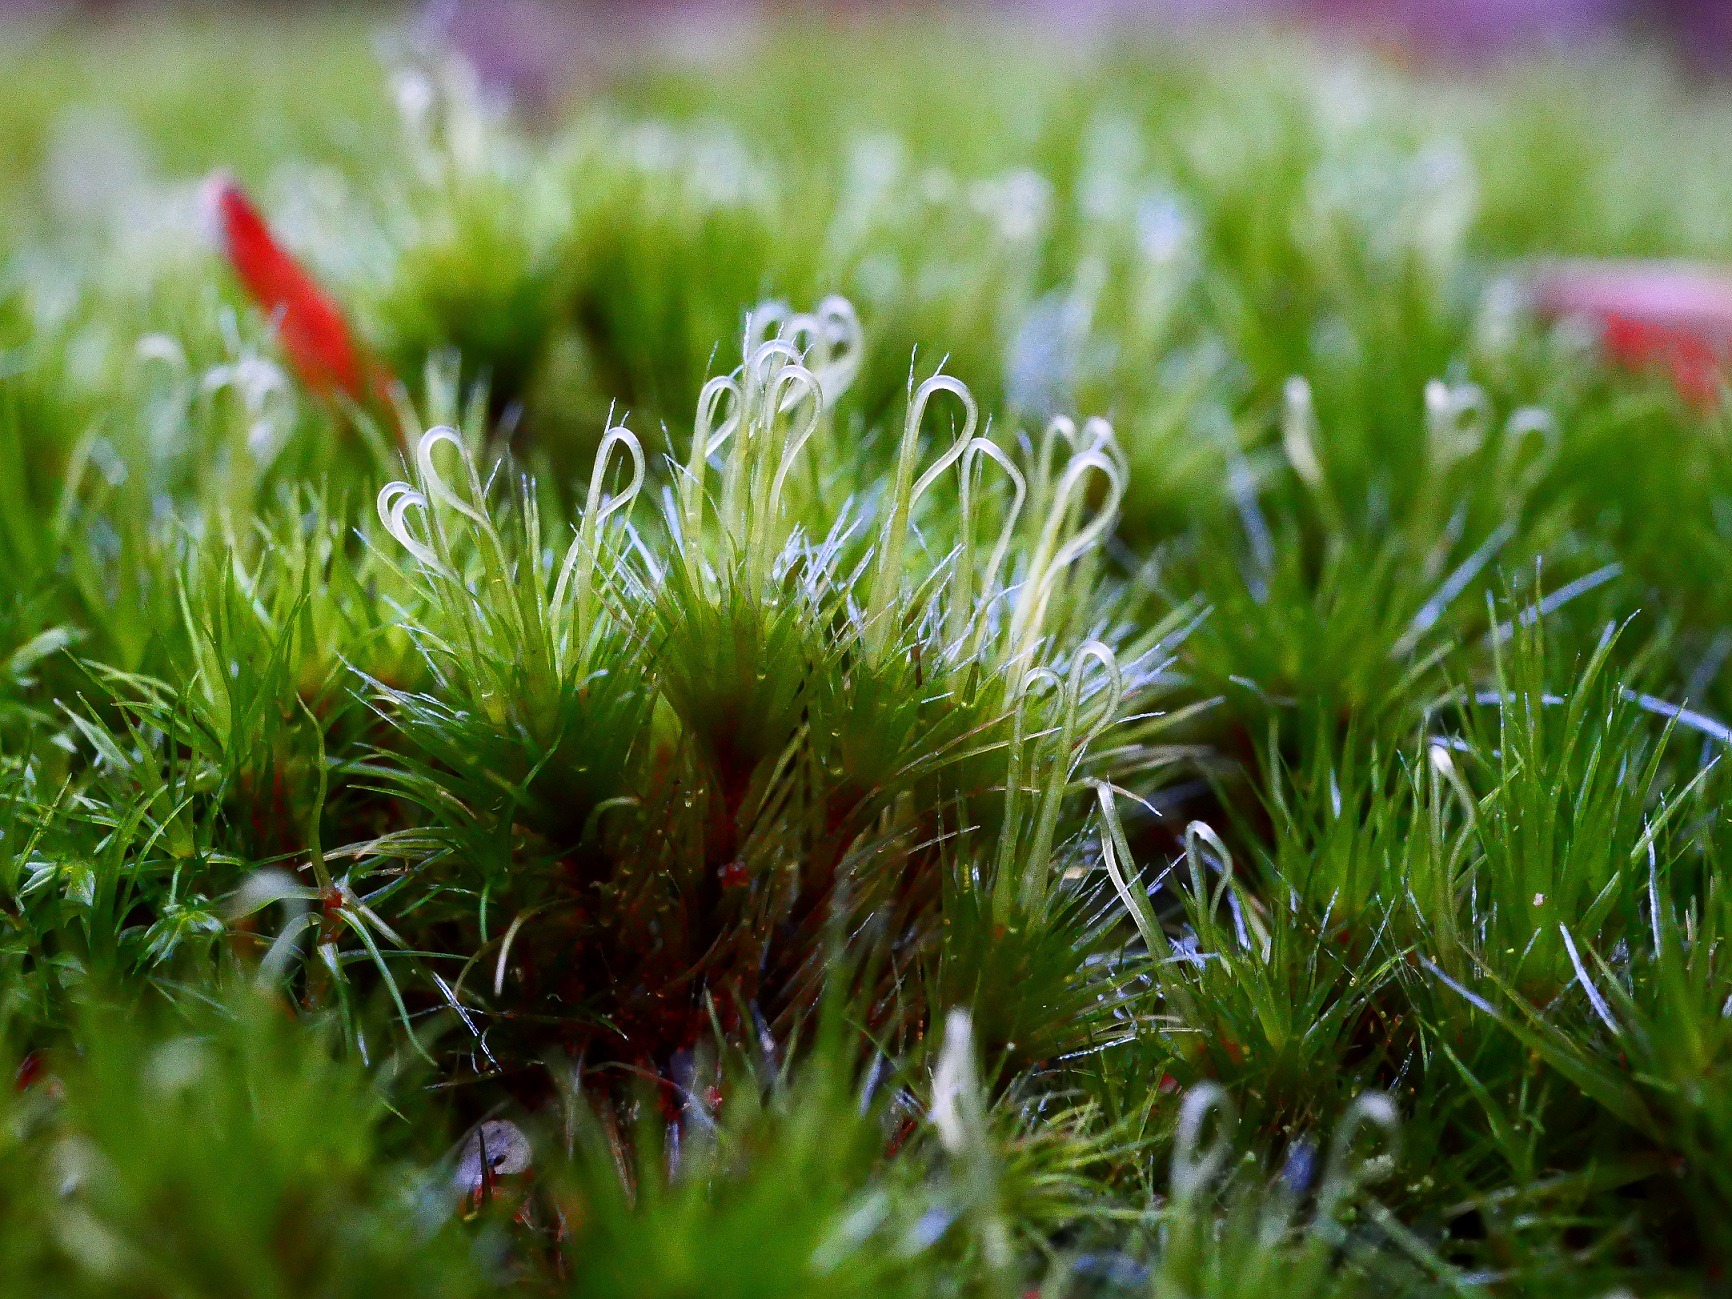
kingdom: Plantae
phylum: Bryophyta
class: Bryopsida
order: Dicranales
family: Leucobryaceae
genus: Campylopus
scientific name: Campylopus introflexus
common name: Stjerne-bredribbe
